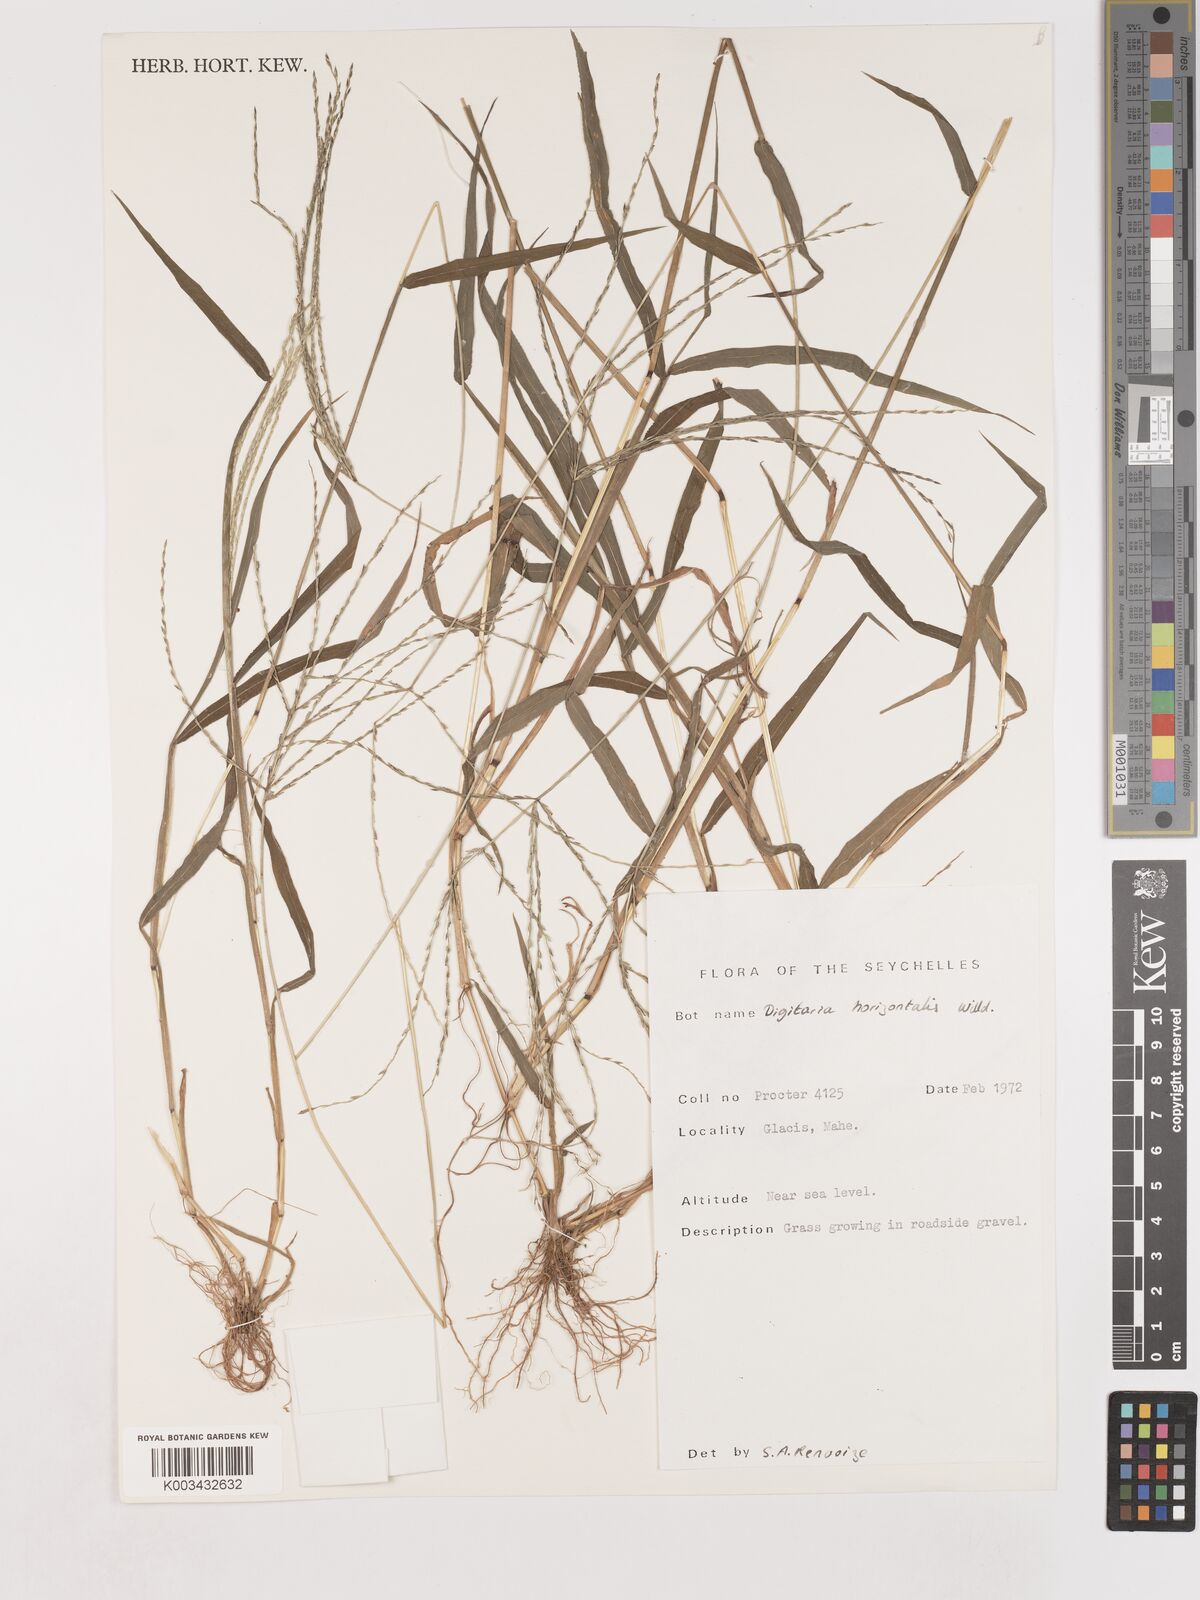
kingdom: Plantae
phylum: Tracheophyta
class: Liliopsida
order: Poales
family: Poaceae
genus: Digitaria
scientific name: Digitaria horizontalis
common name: Jamaican crabgrass
